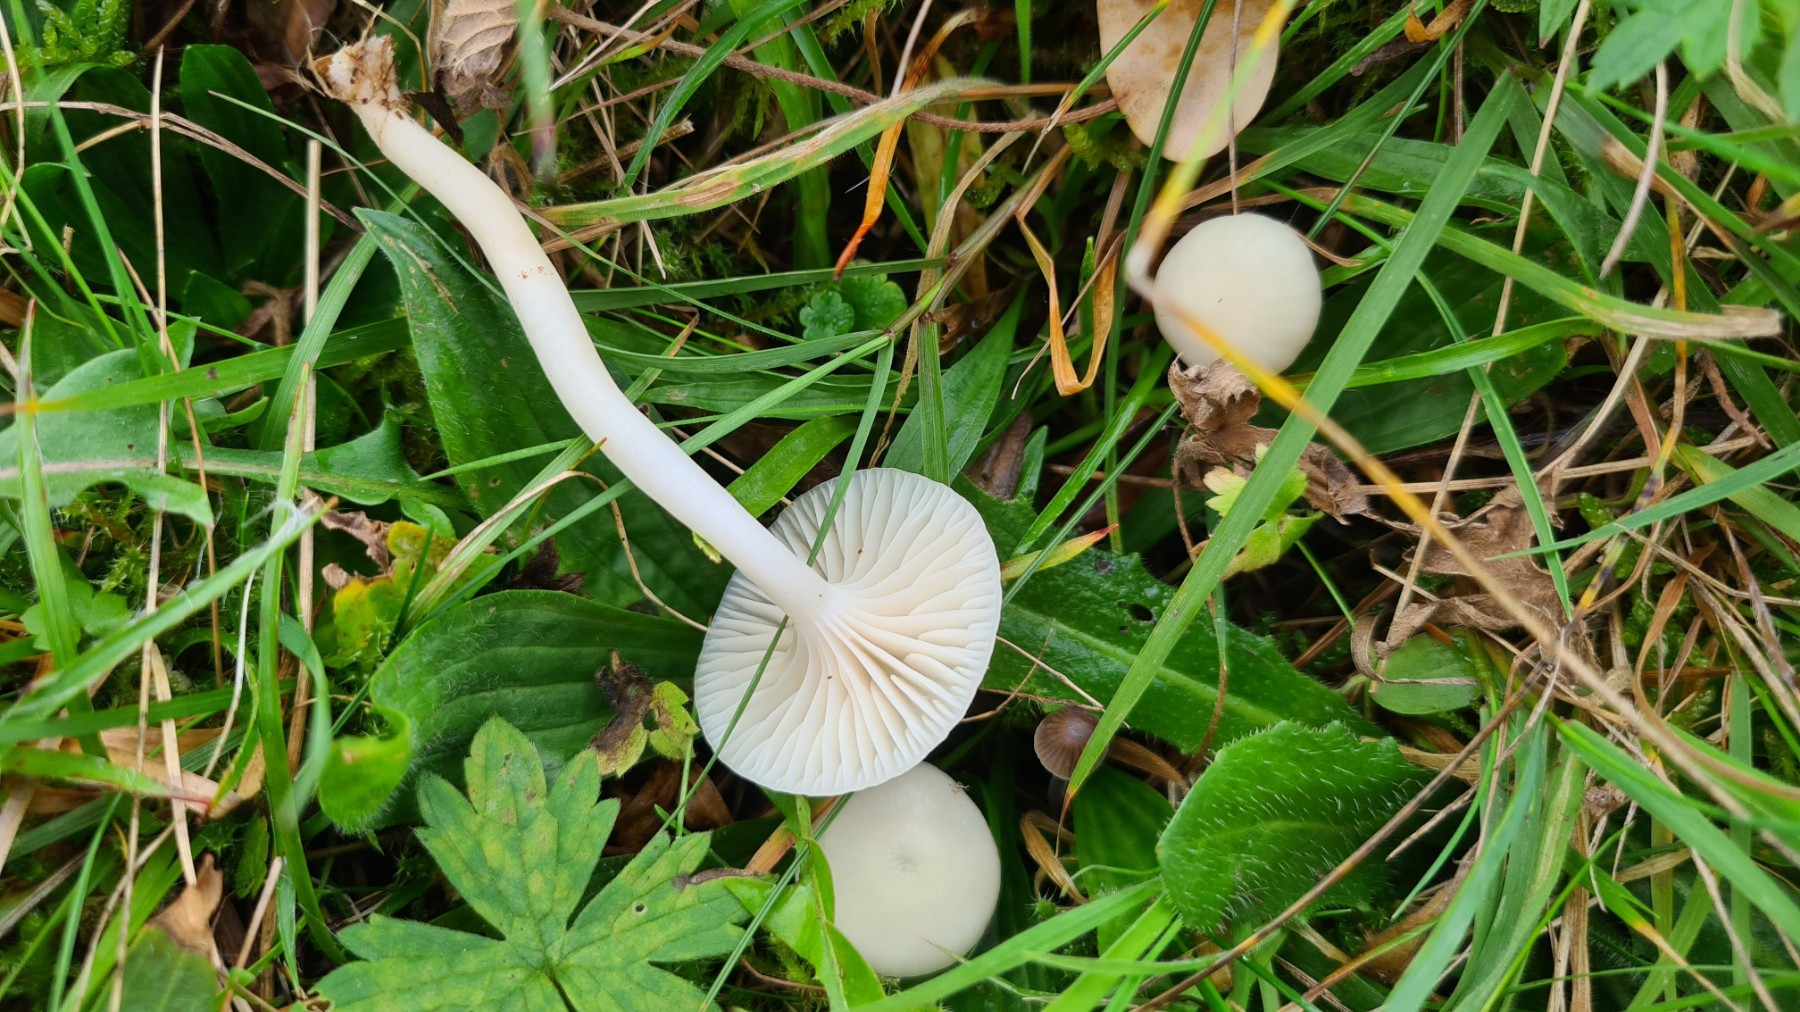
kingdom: Fungi
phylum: Basidiomycota
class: Agaricomycetes
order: Agaricales
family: Hygrophoraceae
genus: Cuphophyllus
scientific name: Cuphophyllus virgineus
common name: snehvid vokshat
